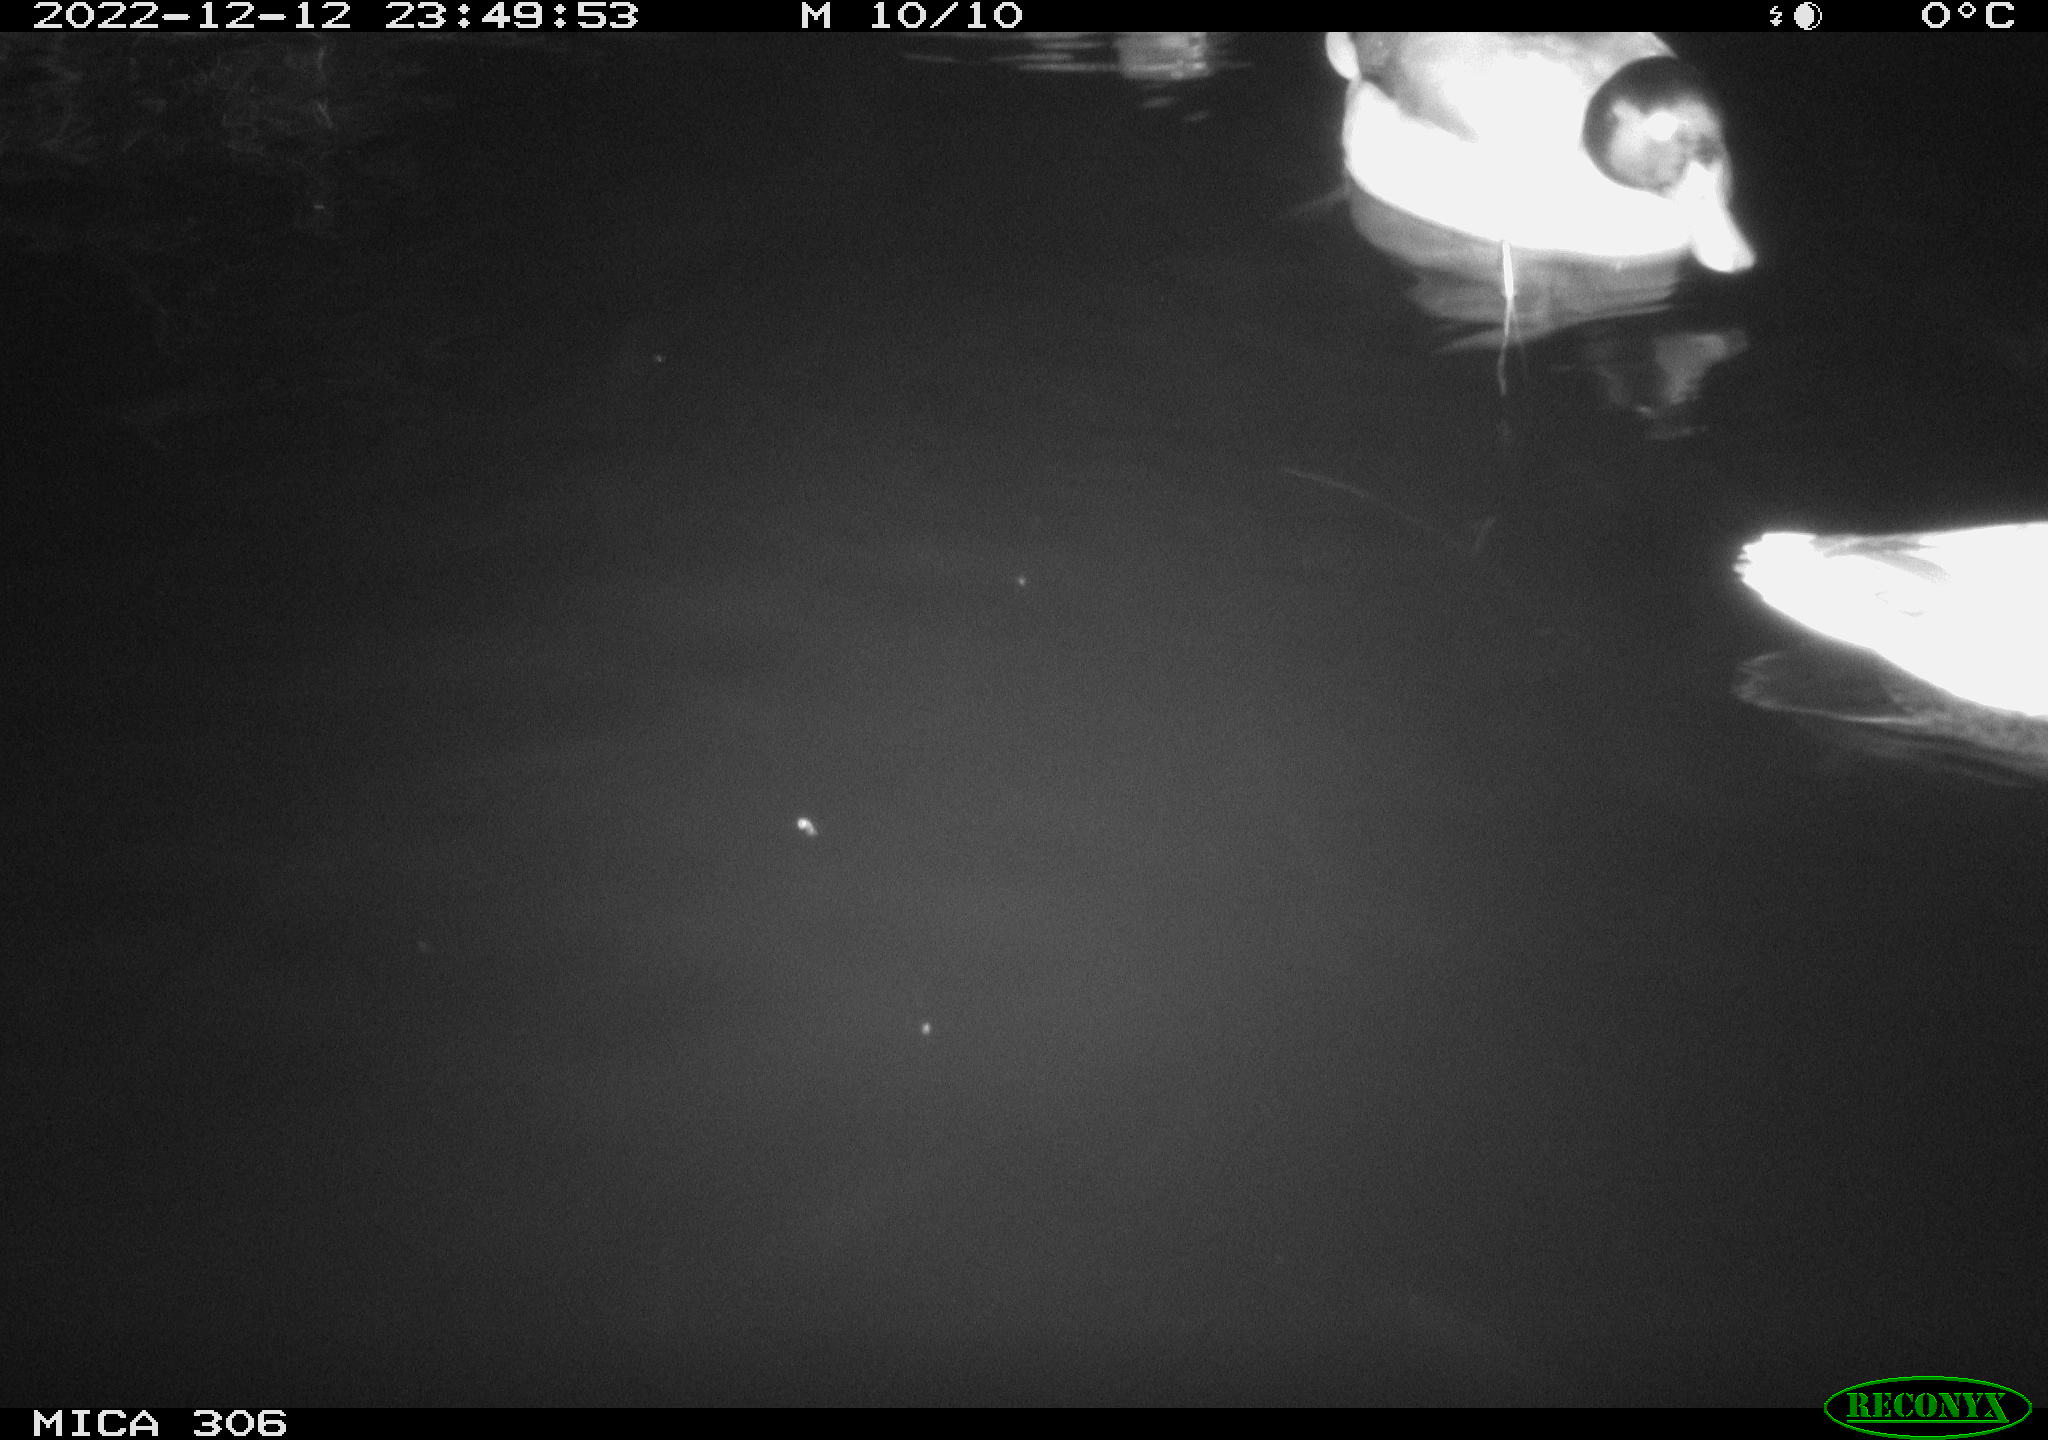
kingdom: Animalia
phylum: Chordata
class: Aves
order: Anseriformes
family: Anatidae
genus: Anas
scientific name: Anas
